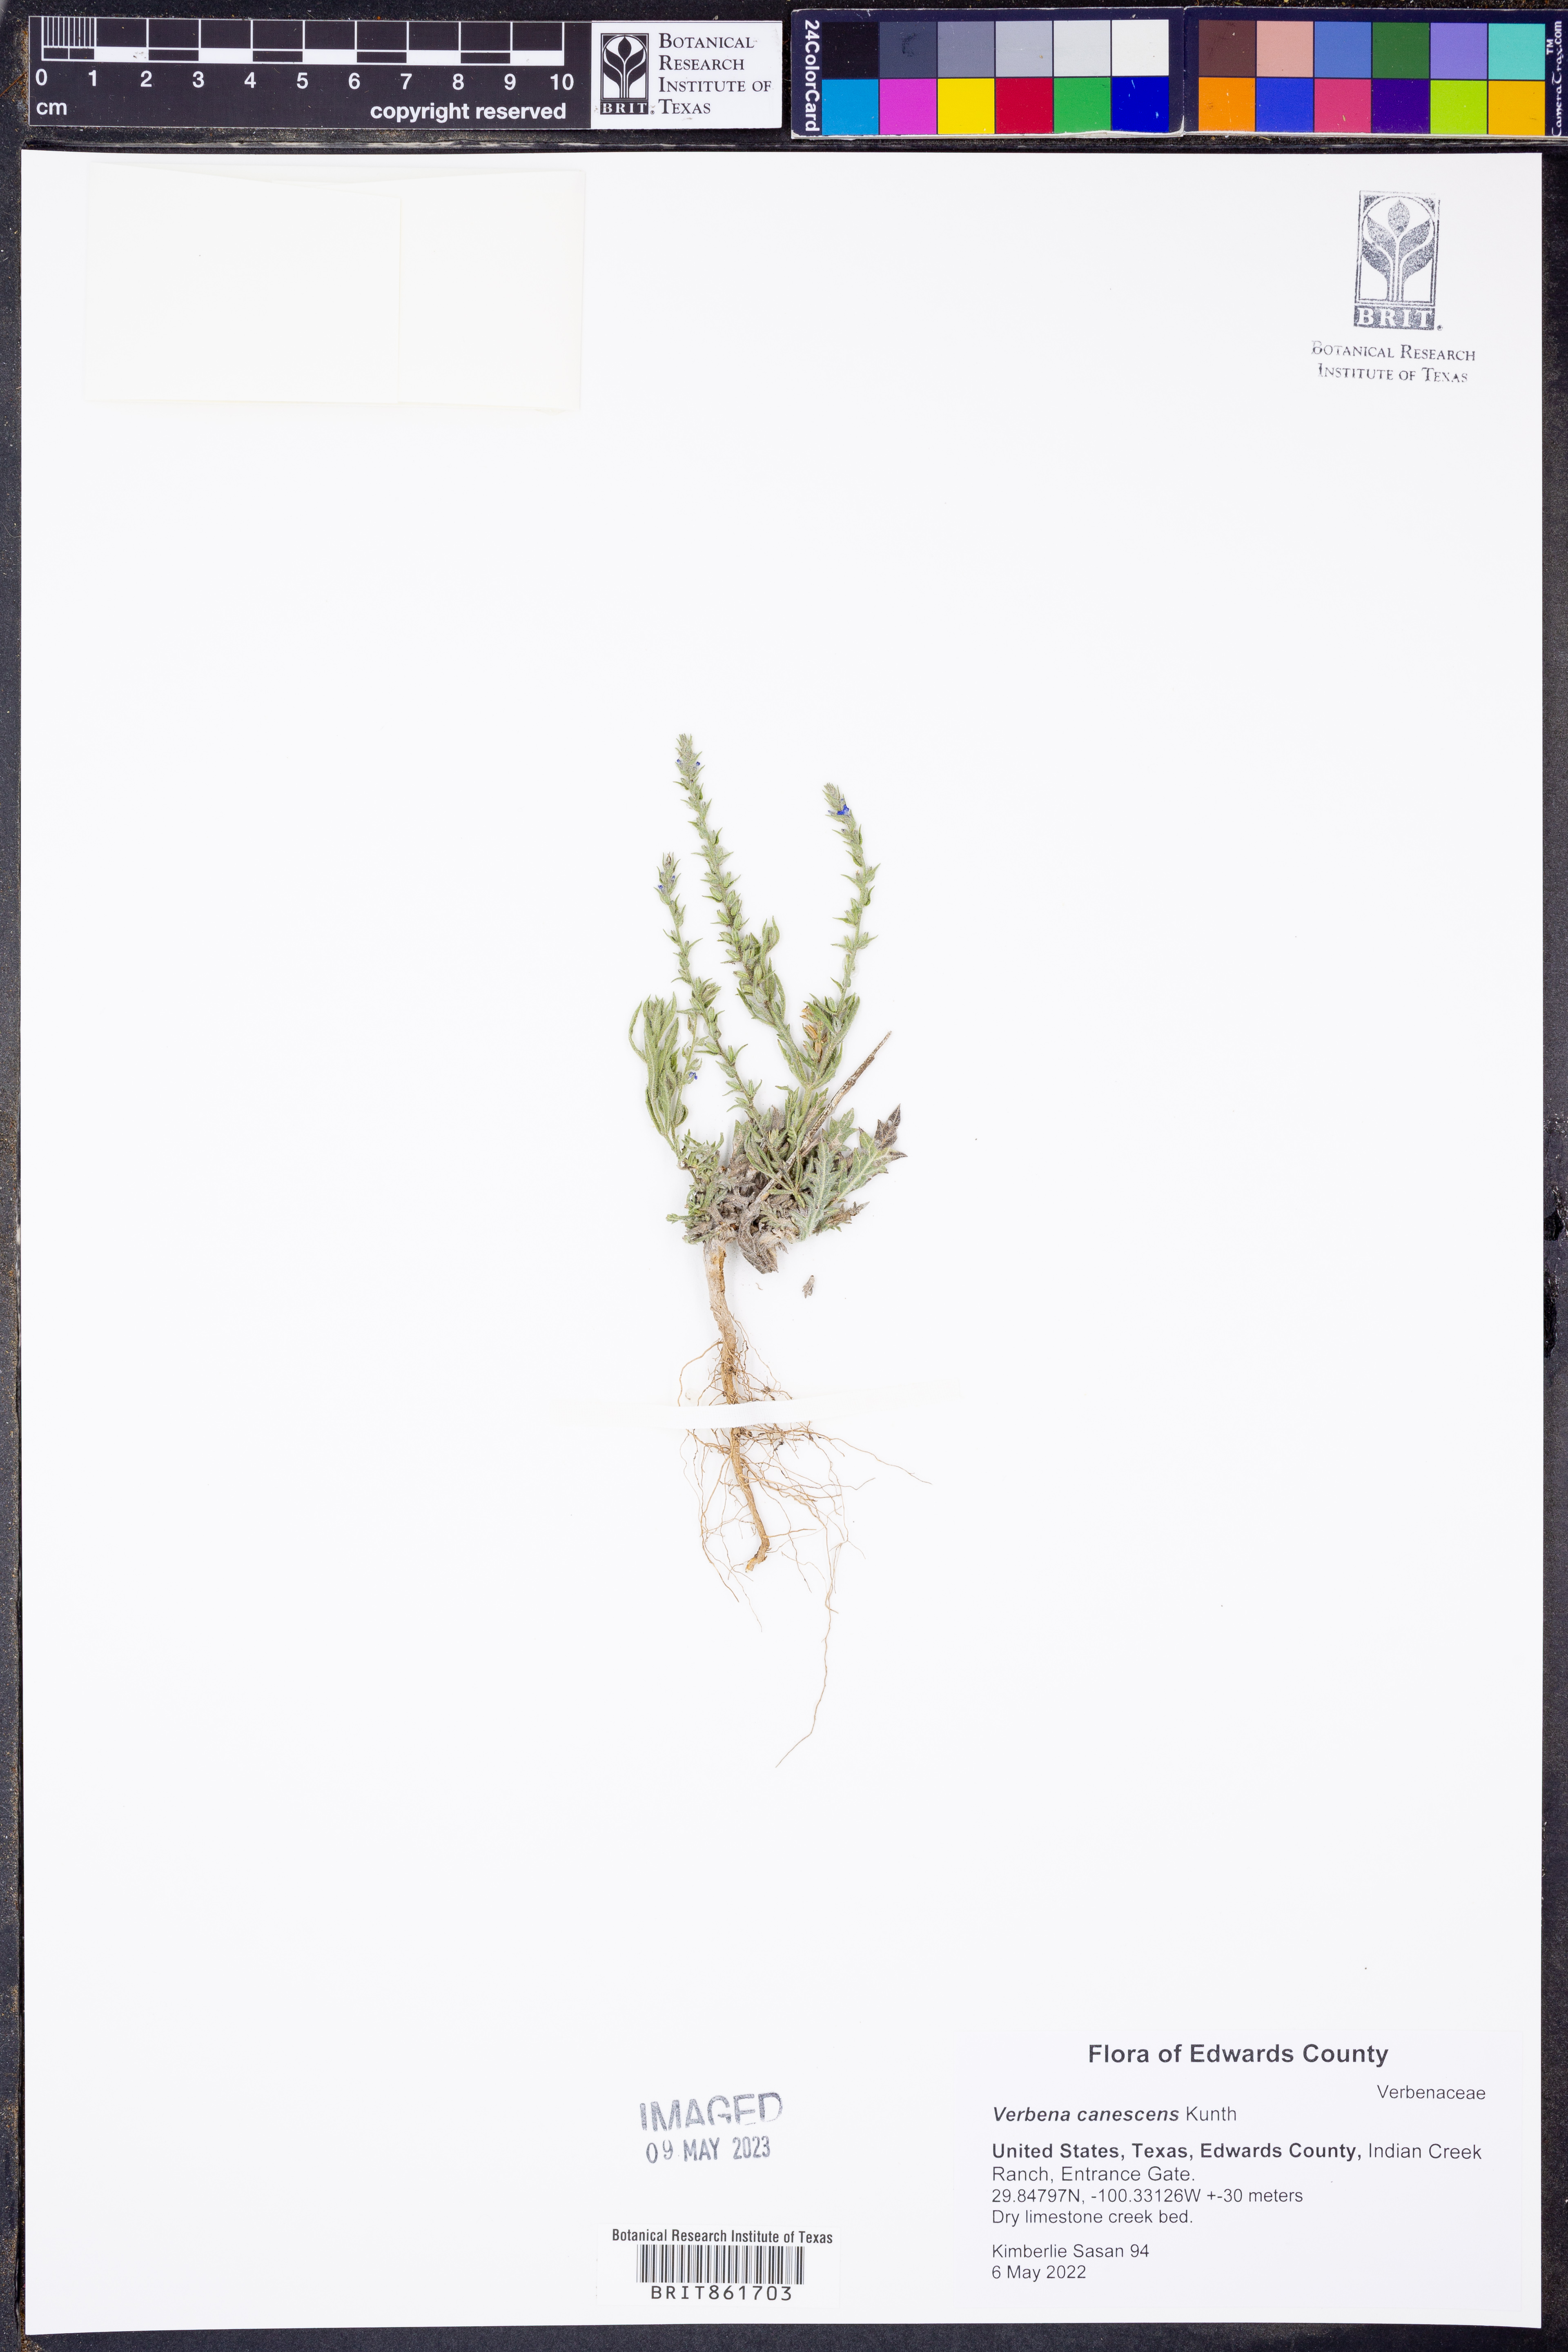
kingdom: Plantae
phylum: Tracheophyta
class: Magnoliopsida
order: Lamiales
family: Verbenaceae
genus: Verbena
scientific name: Verbena canescens
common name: Gray vervain
